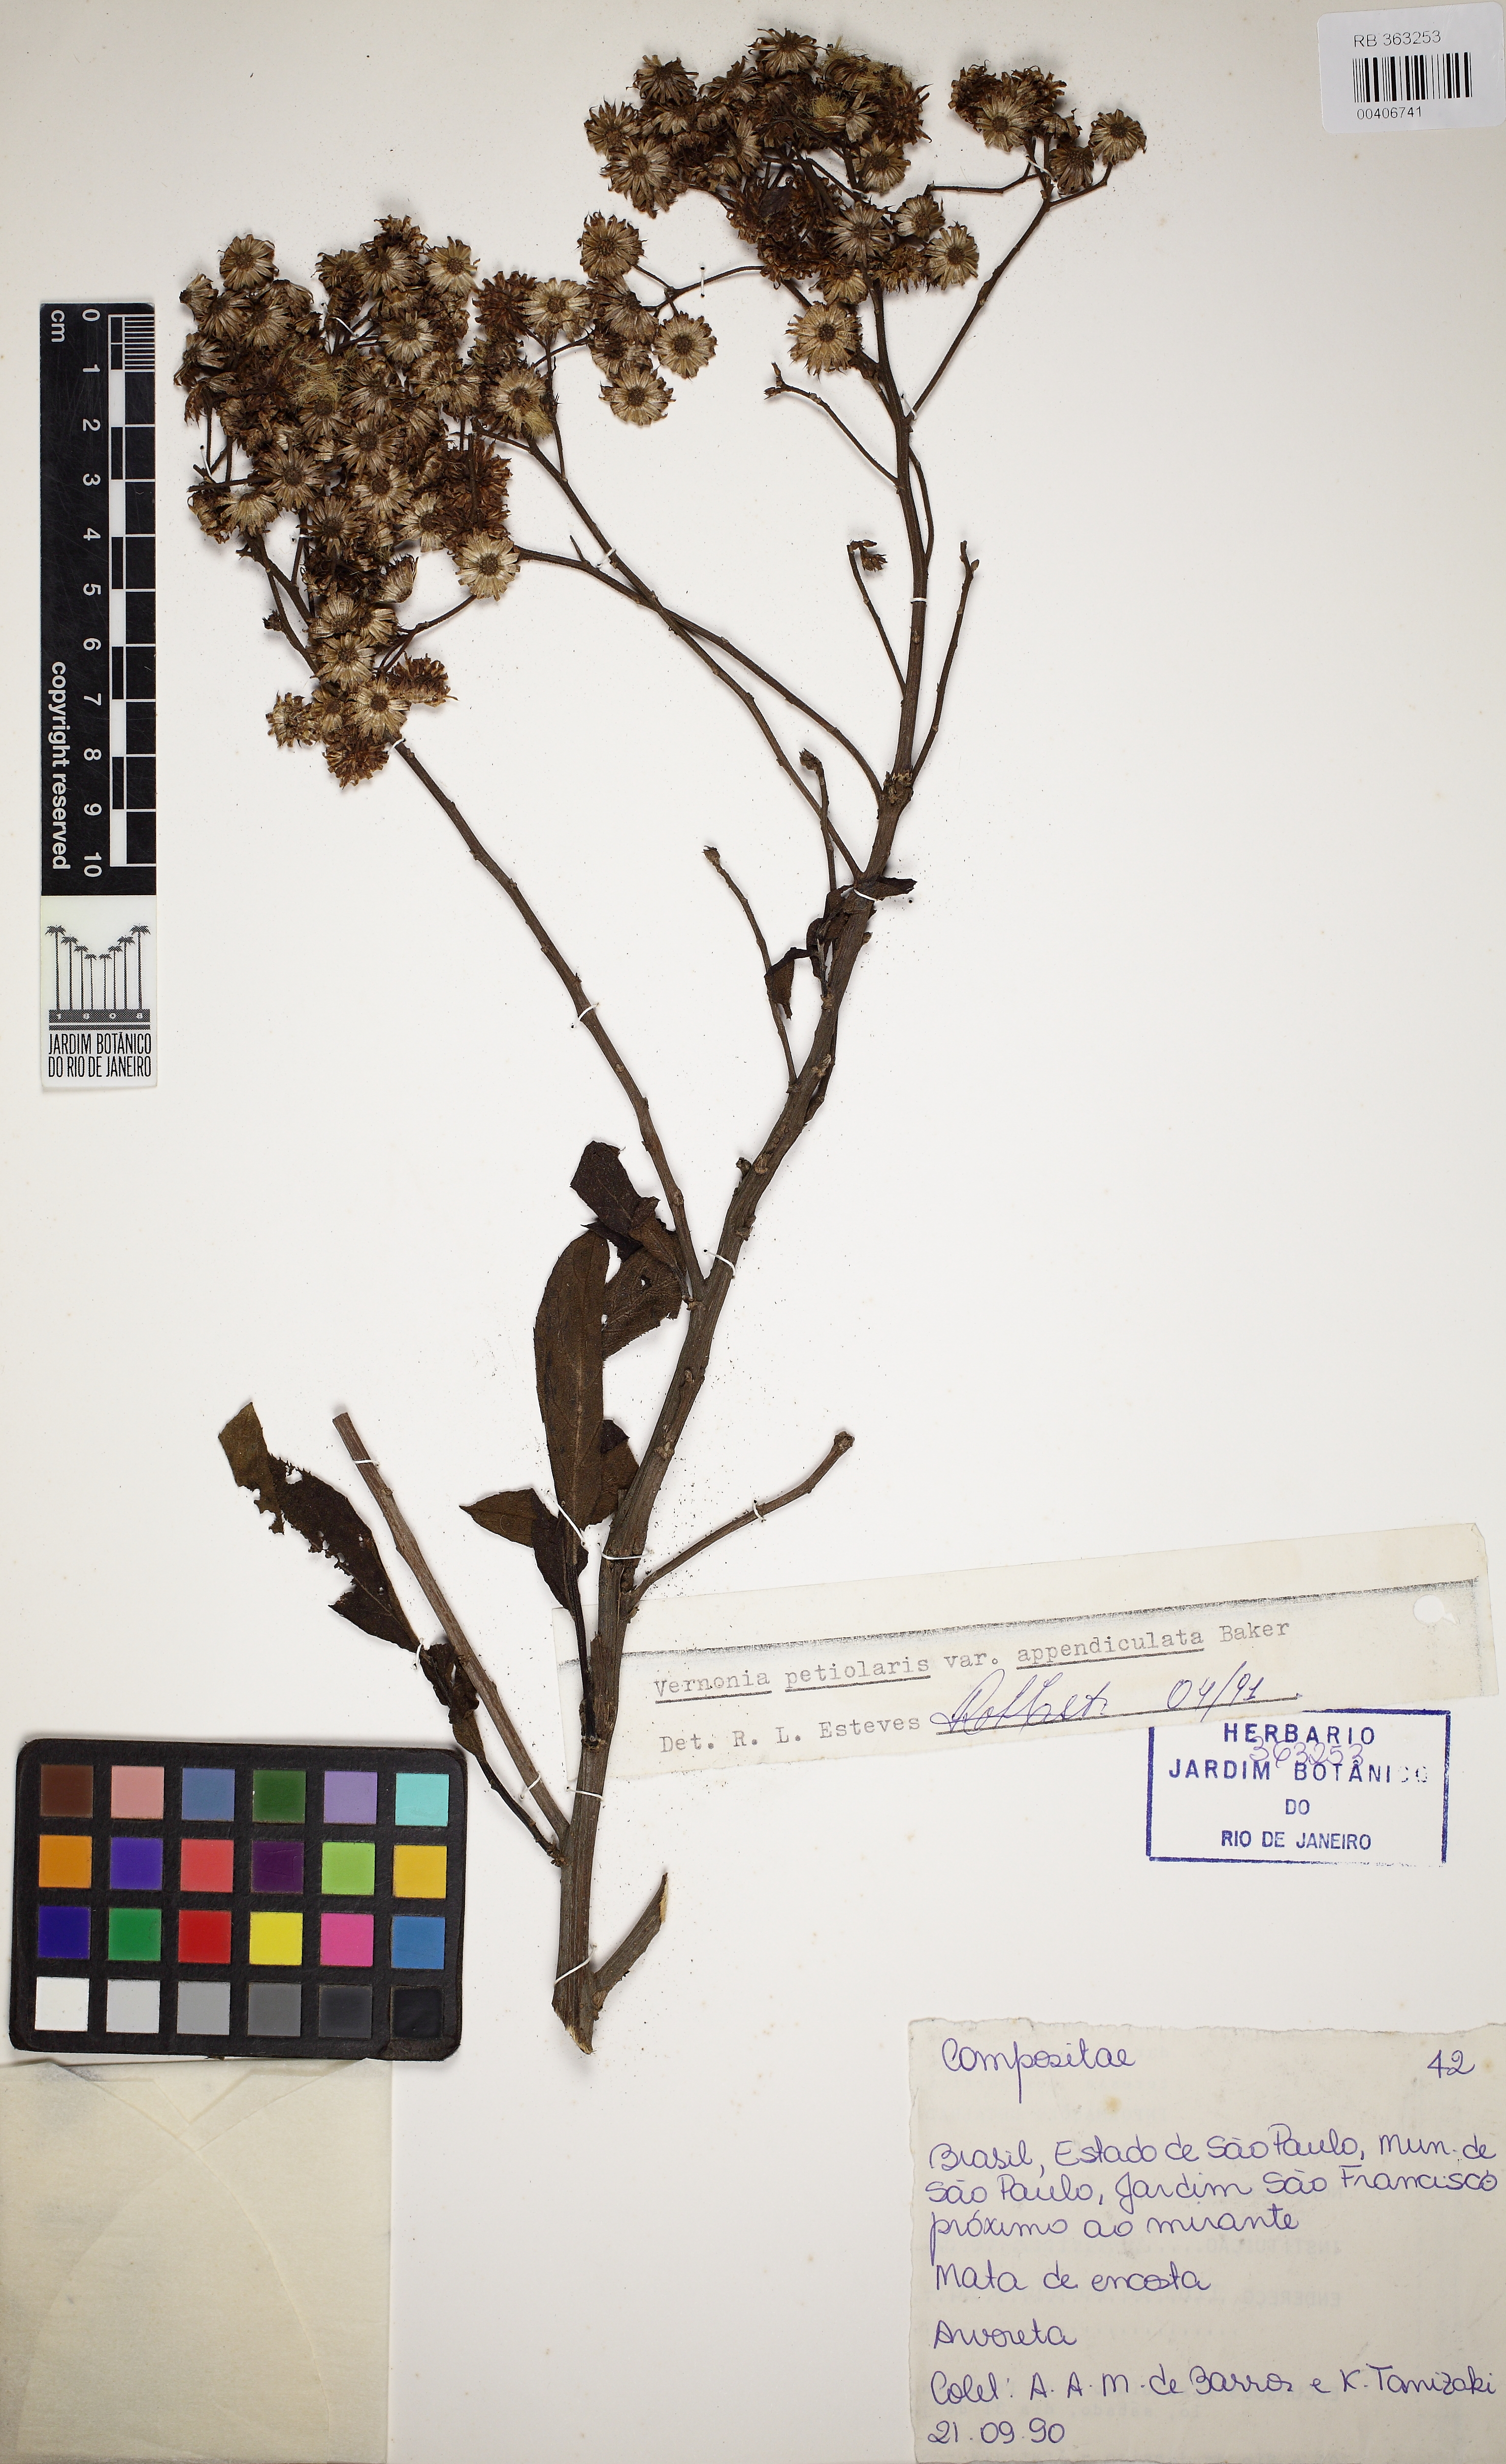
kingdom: Plantae
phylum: Tracheophyta
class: Magnoliopsida
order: Asterales
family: Asteraceae
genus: Vernonanthura
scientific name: Vernonanthura petiolaris
